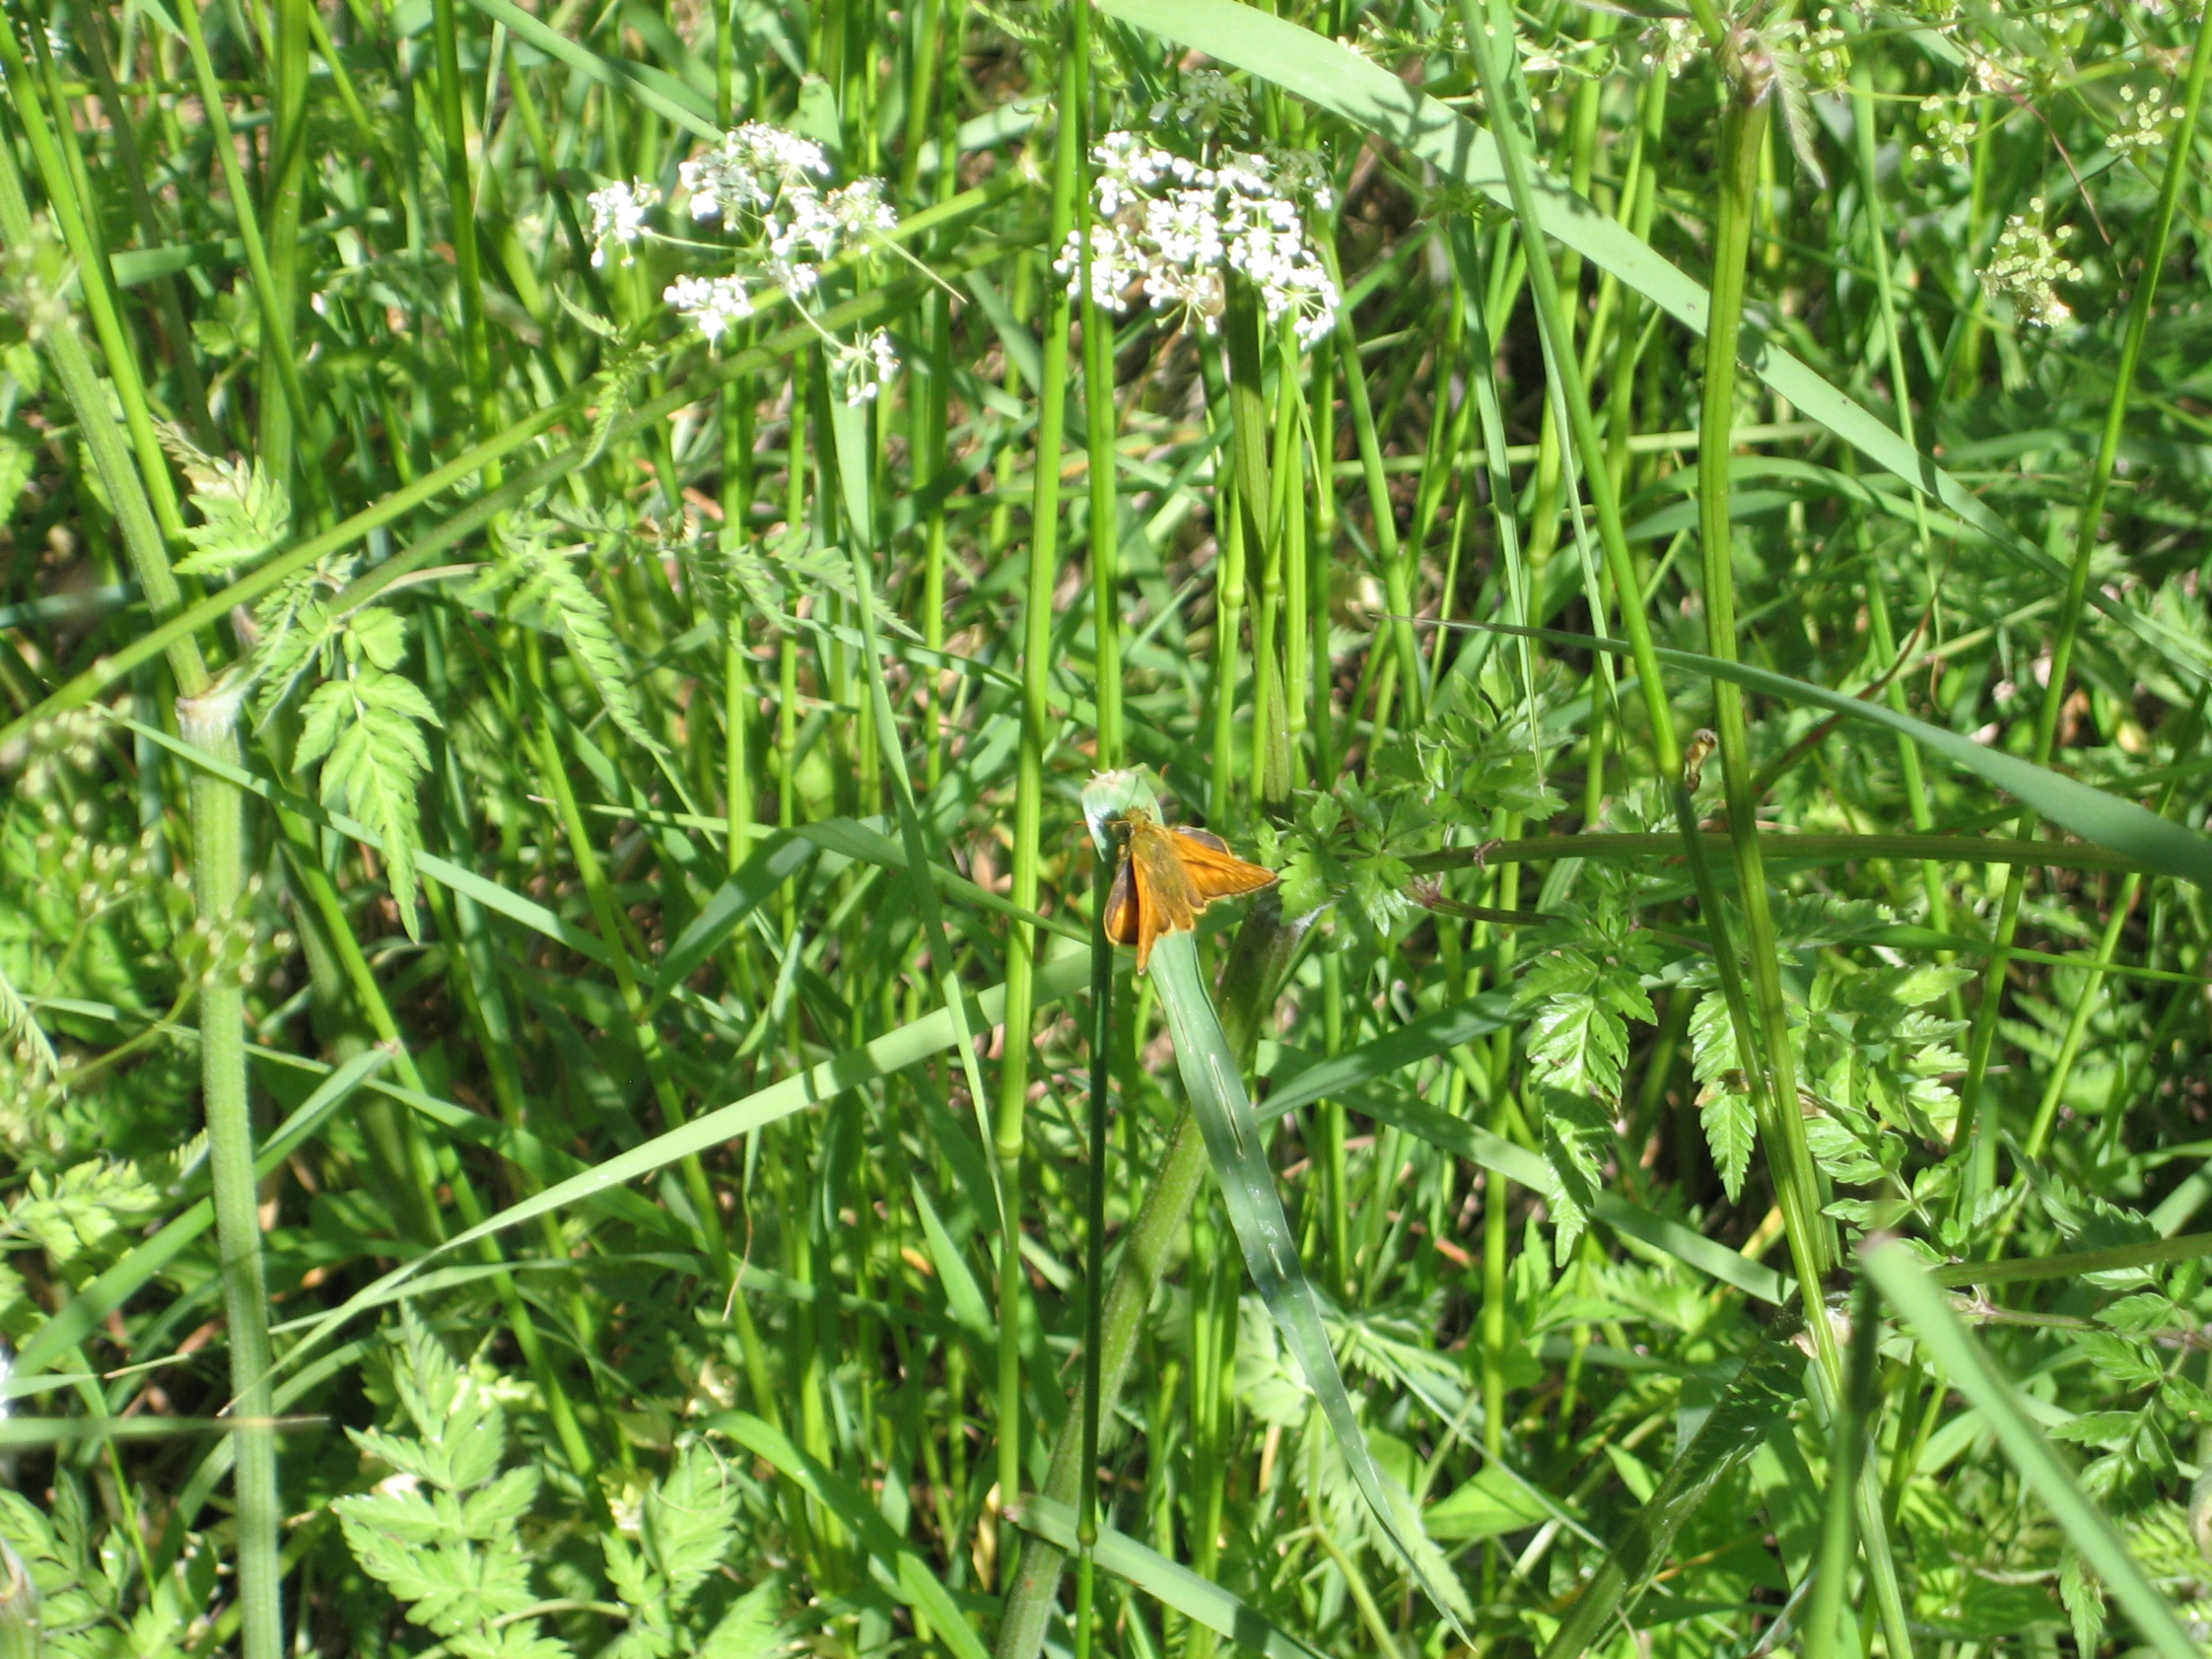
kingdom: Animalia
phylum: Arthropoda
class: Insecta
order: Lepidoptera
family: Hesperiidae
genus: Ochlodes
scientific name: Ochlodes venata
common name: Stor bredpande
